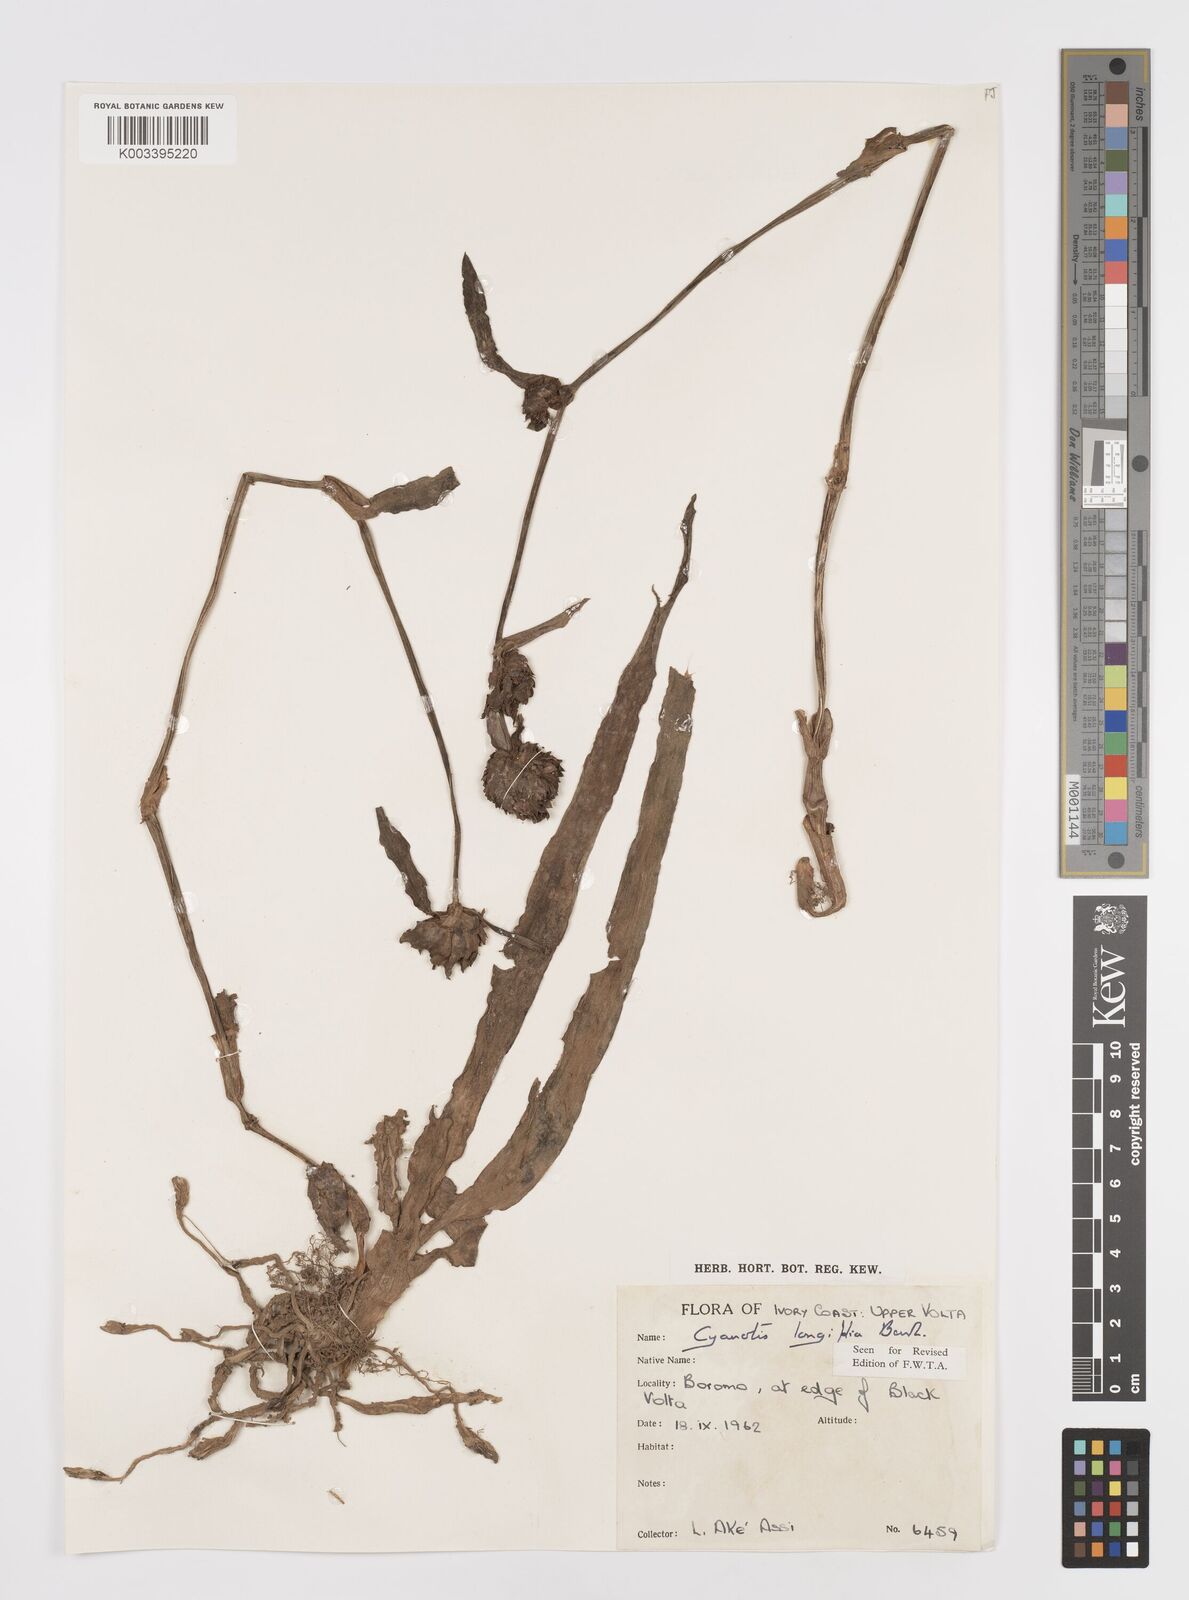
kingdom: Plantae
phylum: Tracheophyta
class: Liliopsida
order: Commelinales
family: Commelinaceae
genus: Cyanotis
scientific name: Cyanotis
